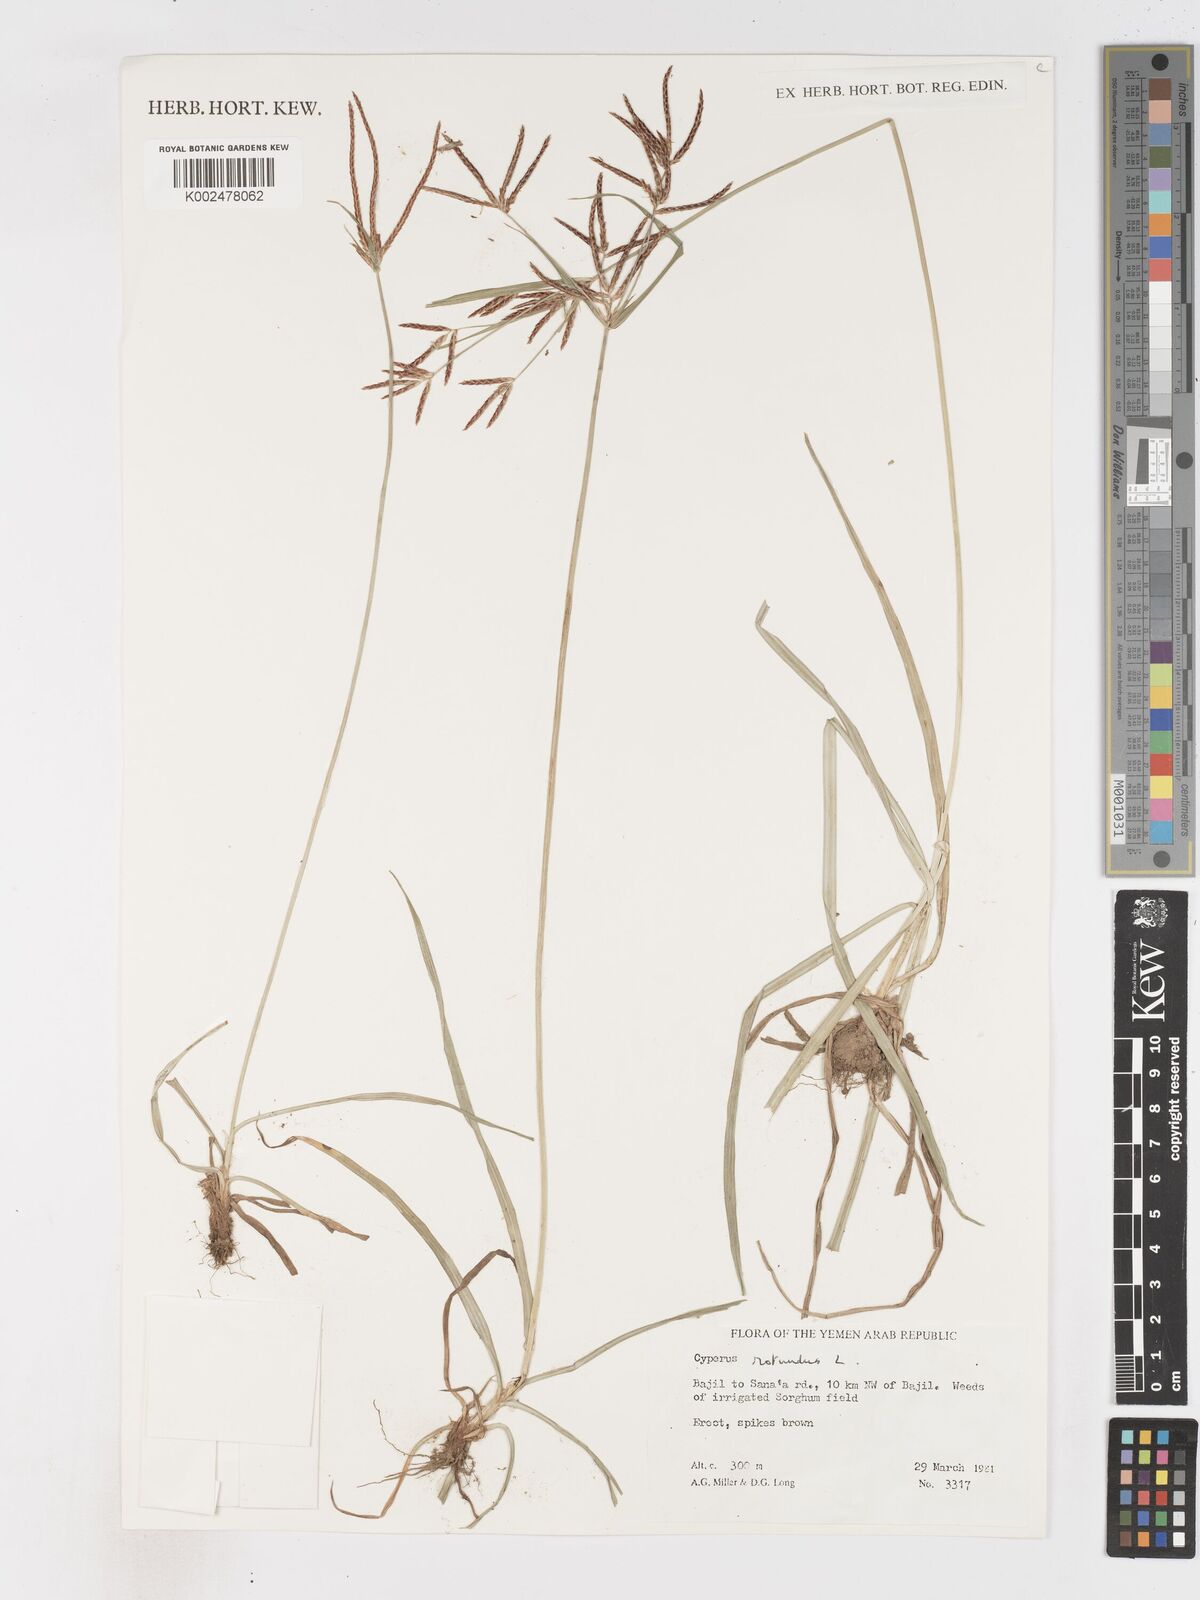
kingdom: Plantae
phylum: Tracheophyta
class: Liliopsida
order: Poales
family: Cyperaceae
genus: Cyperus
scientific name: Cyperus rotundus
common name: Nutgrass
